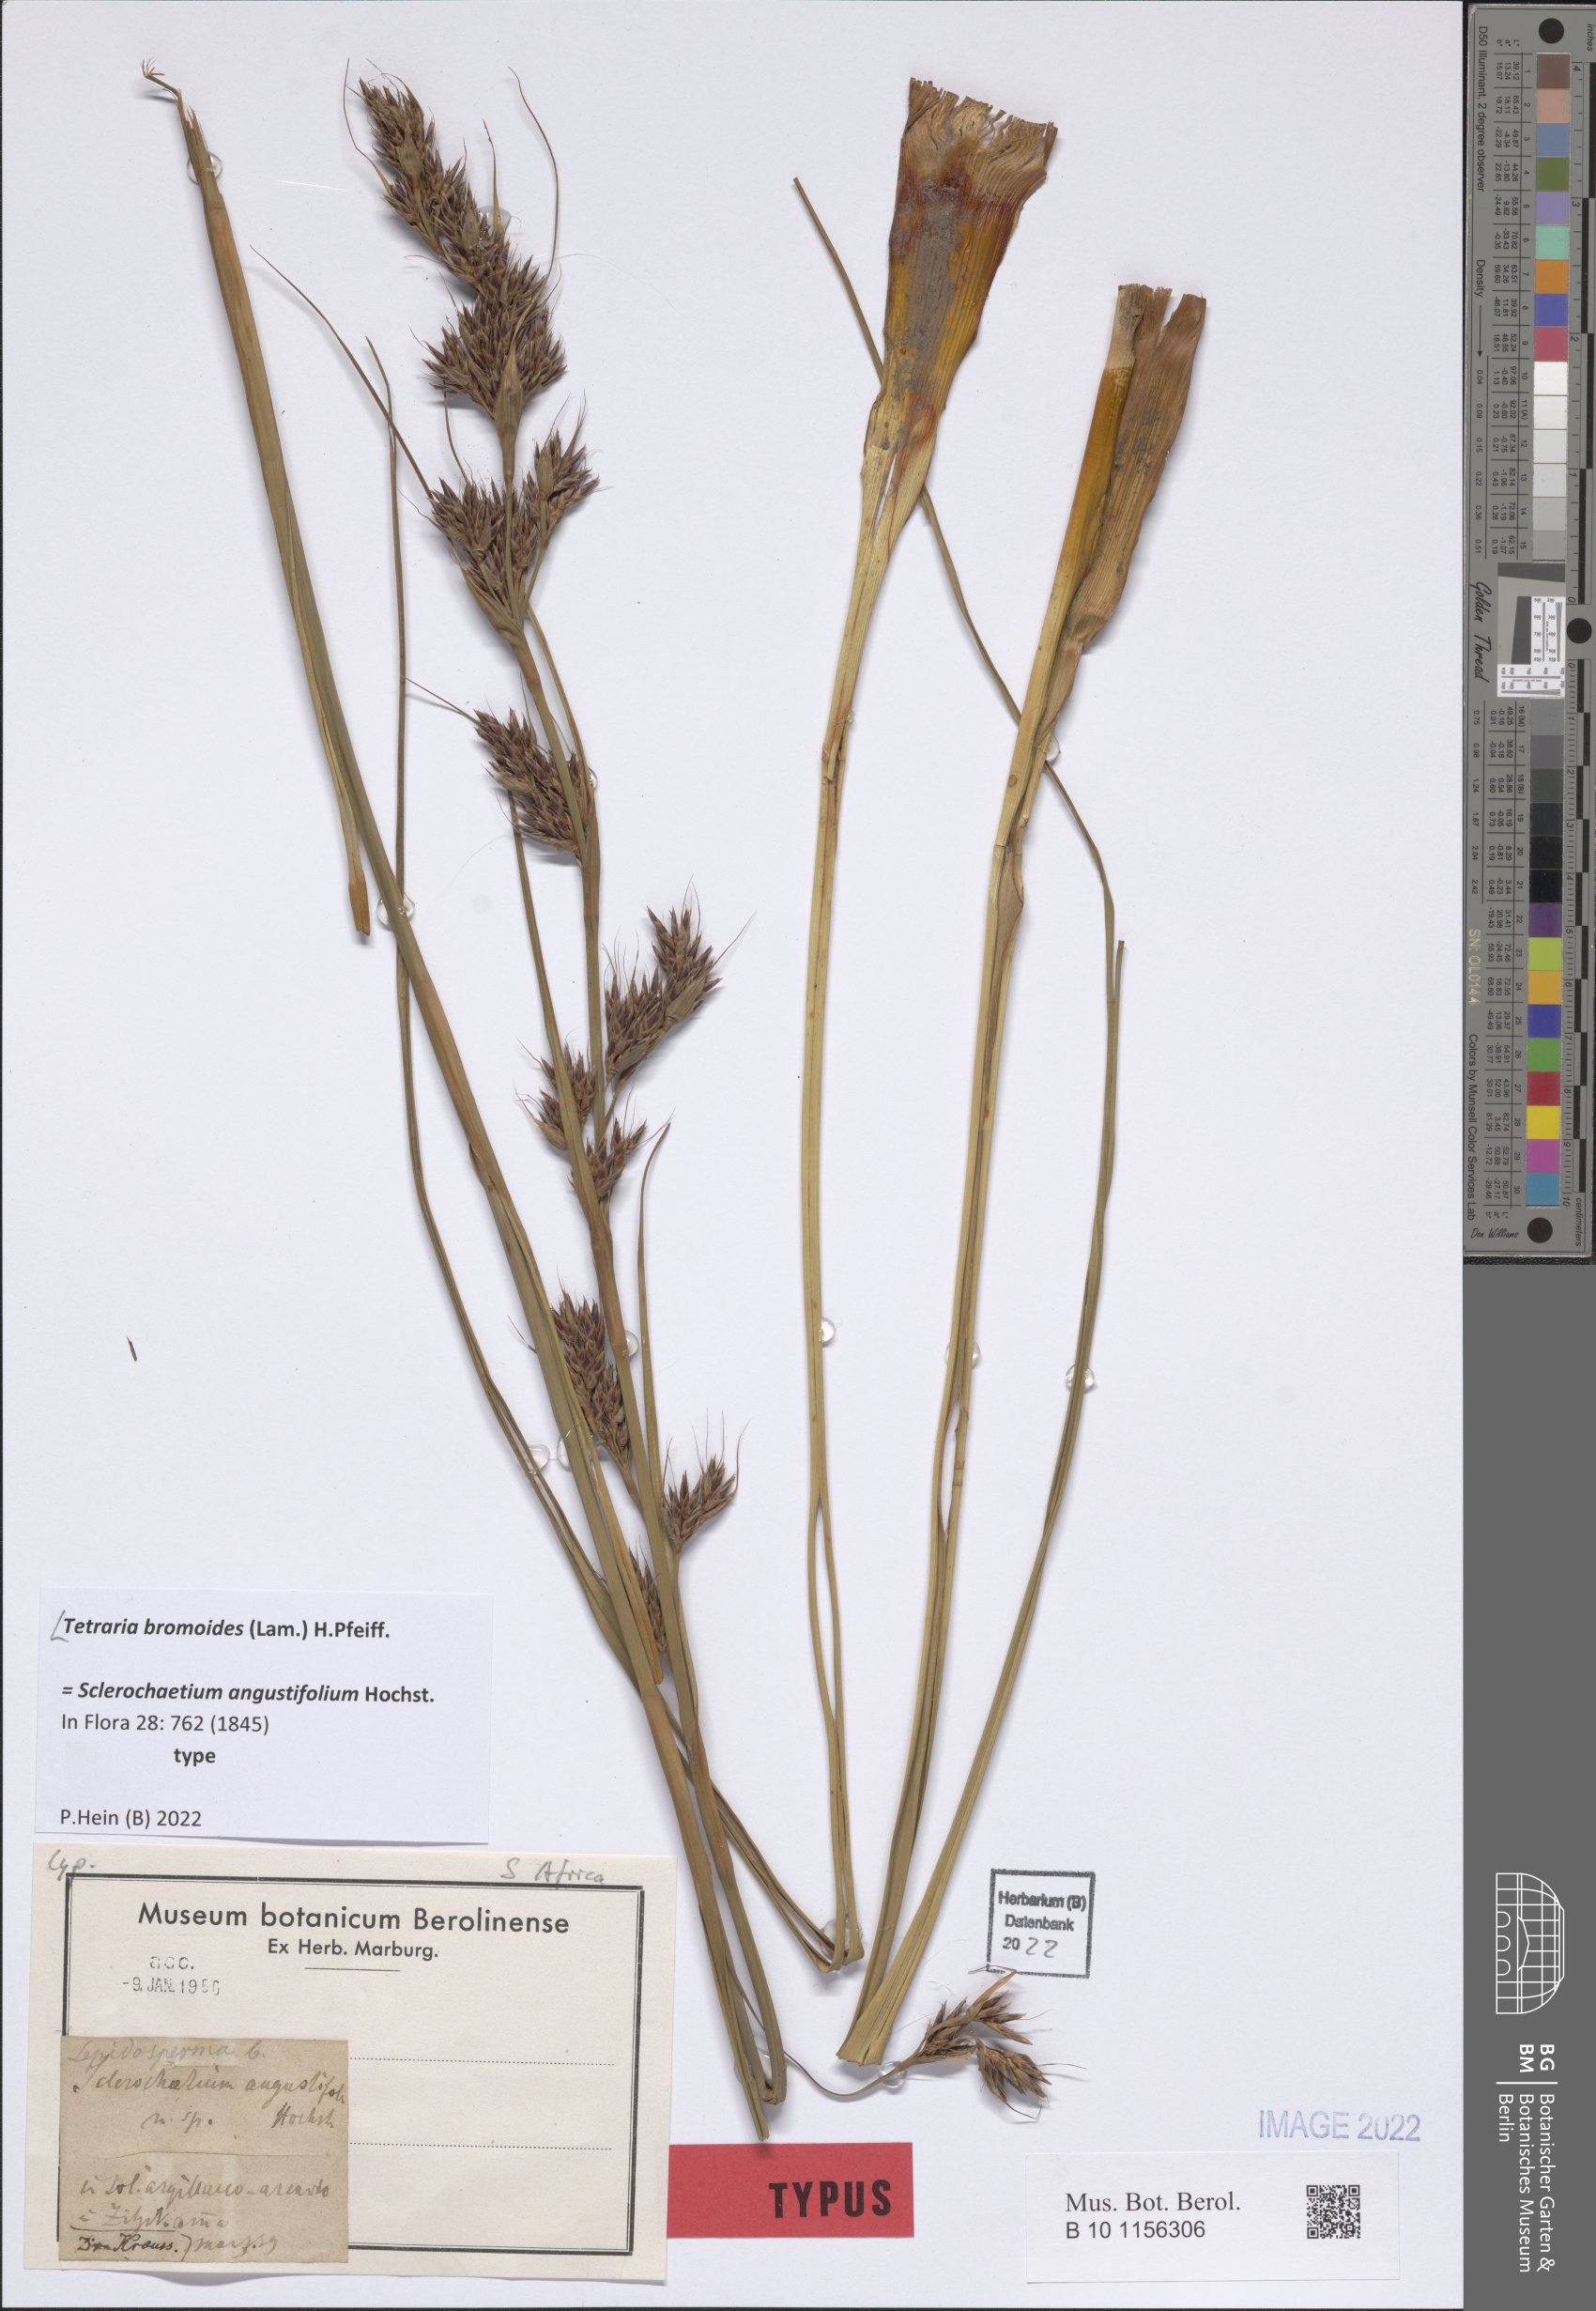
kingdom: Plantae
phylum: Tracheophyta
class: Liliopsida
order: Poales
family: Cyperaceae
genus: Tetraria
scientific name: Tetraria bromoides
